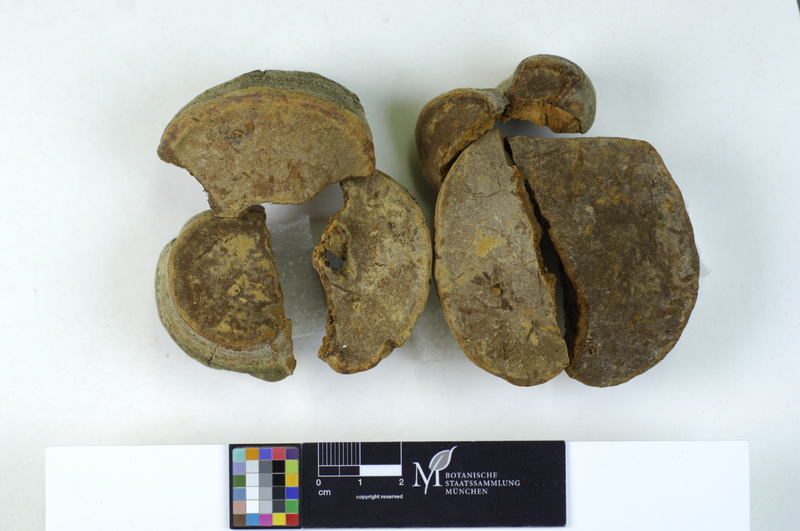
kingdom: Fungi
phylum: Basidiomycota
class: Agaricomycetes
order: Hymenochaetales
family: Hymenochaetaceae
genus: Fomitiporia
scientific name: Fomitiporia hippophaeicola
